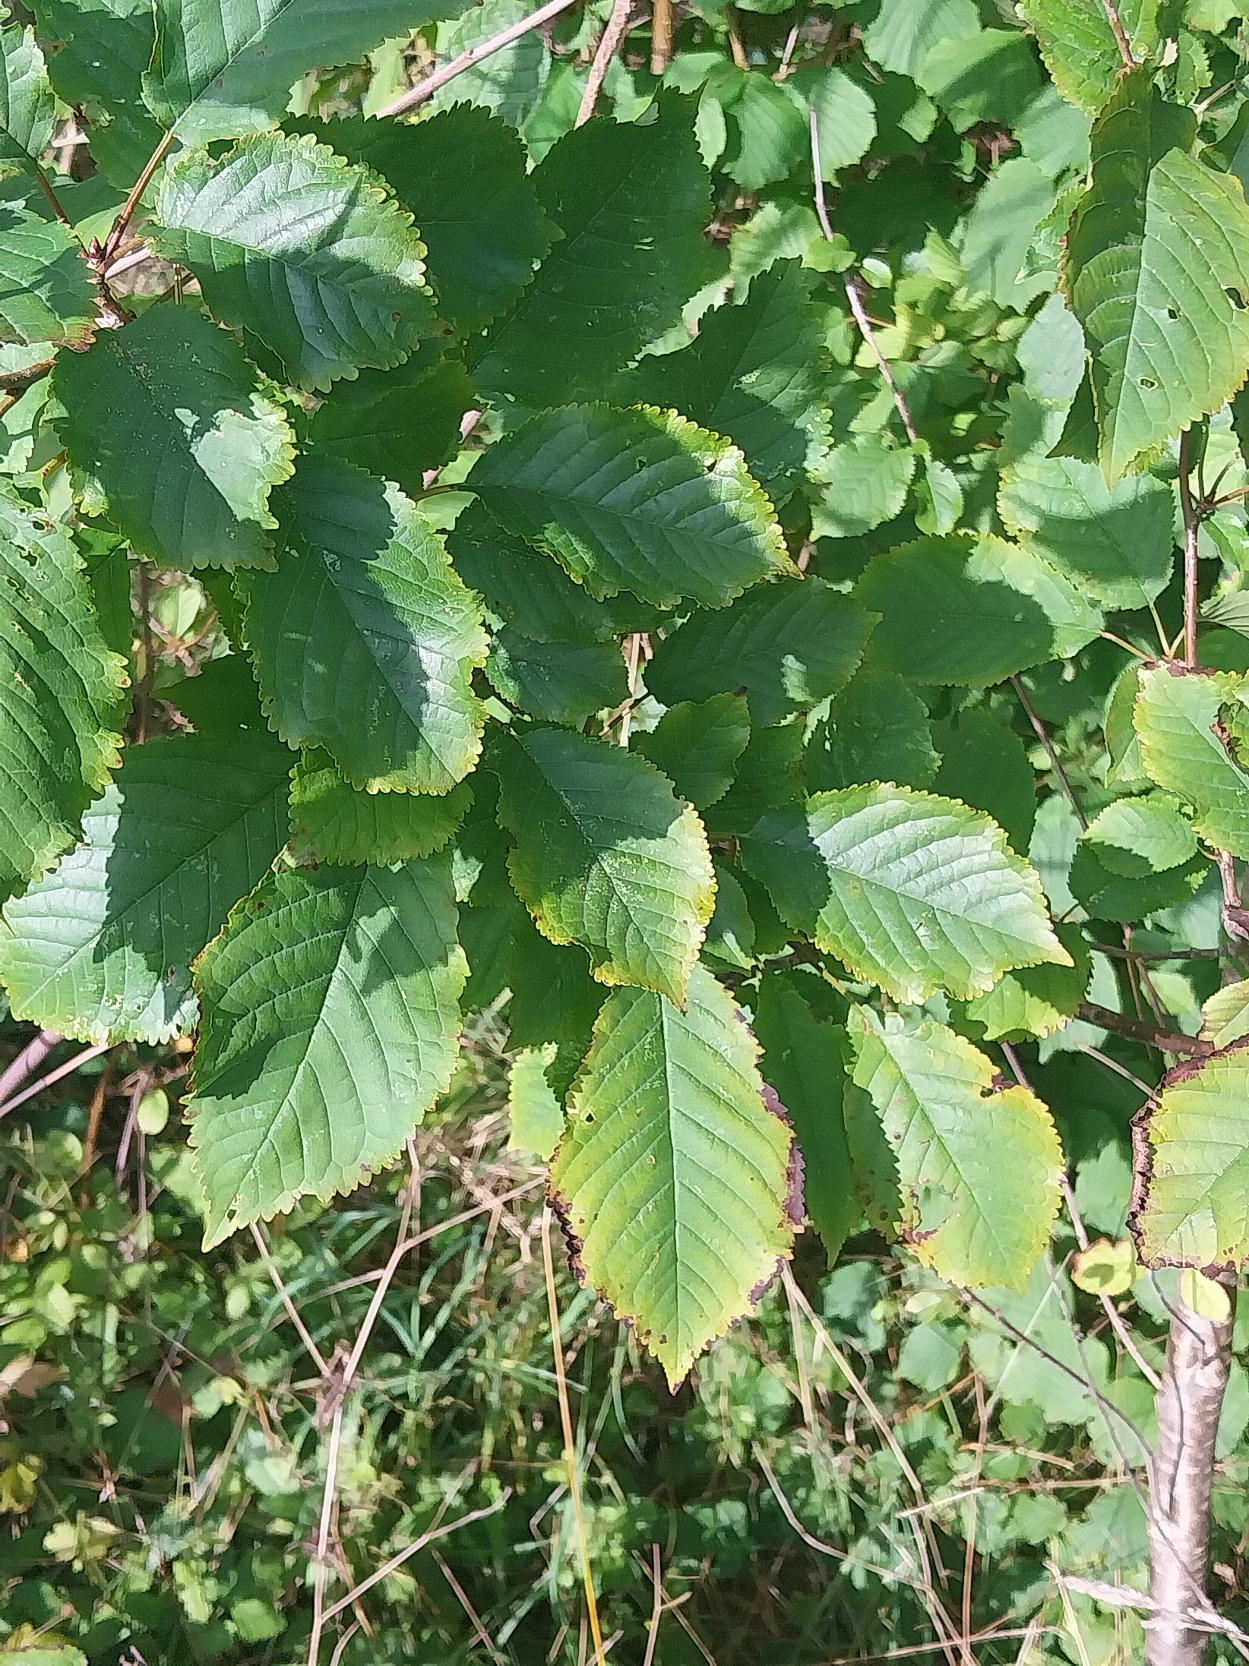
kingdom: Plantae
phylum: Tracheophyta
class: Magnoliopsida
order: Rosales
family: Rosaceae
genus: Prunus
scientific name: Prunus avium
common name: Fugle-kirsebær
